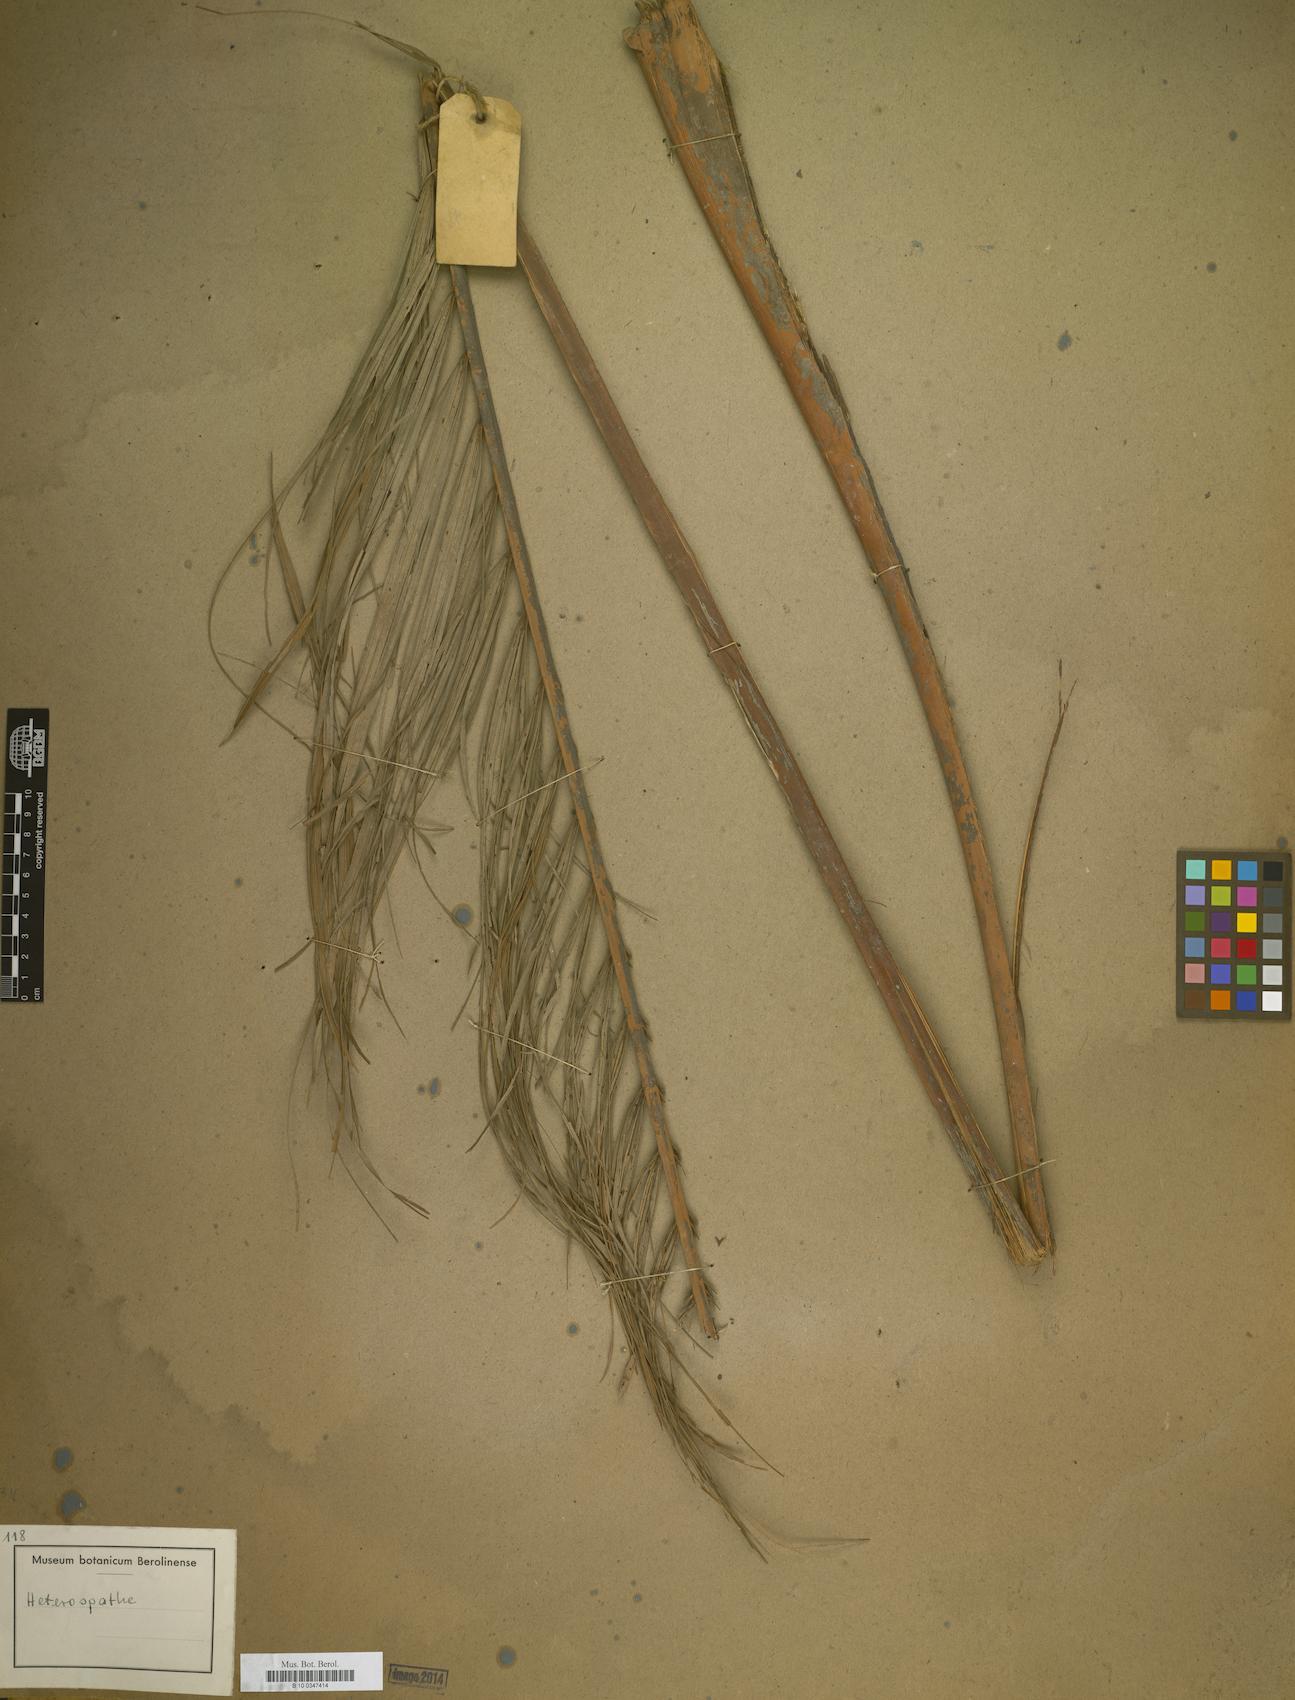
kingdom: Plantae
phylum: Tracheophyta
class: Liliopsida
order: Arecales
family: Arecaceae
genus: Heterospathe
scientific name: Heterospathe
